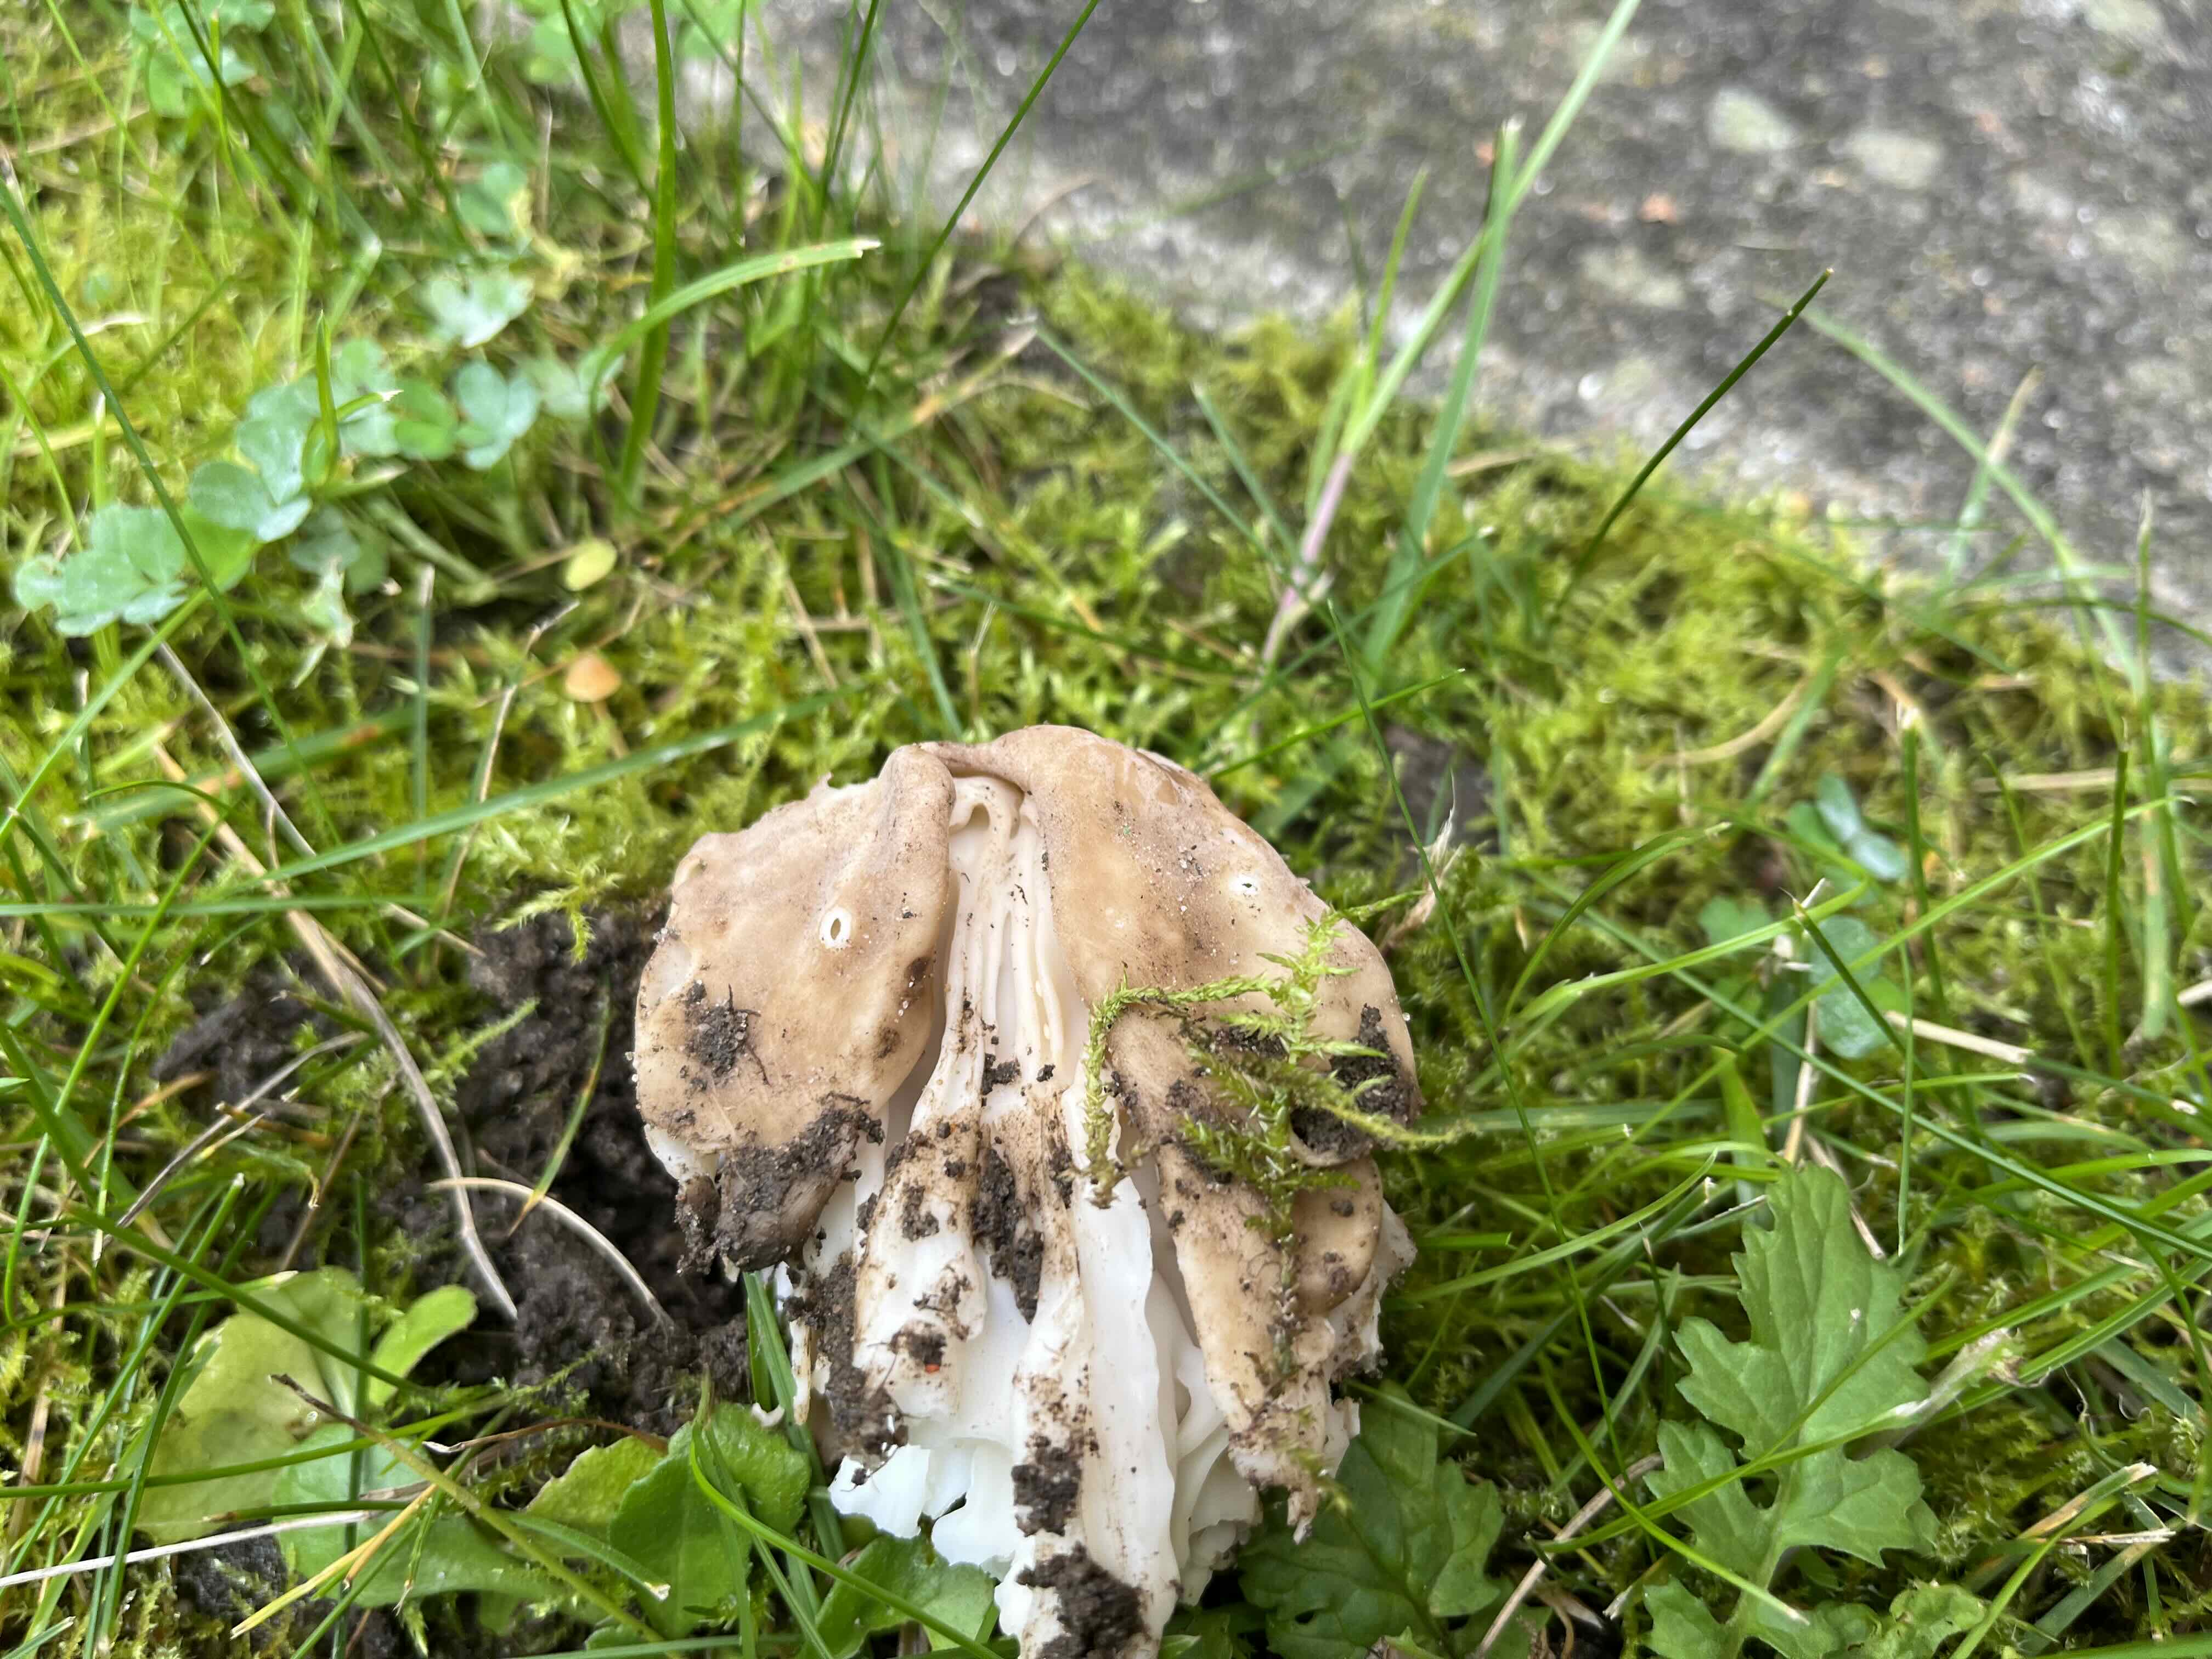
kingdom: Fungi
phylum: Ascomycota
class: Pezizomycetes
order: Pezizales
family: Helvellaceae
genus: Helvella
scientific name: Helvella crispa
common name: kruset foldhat
